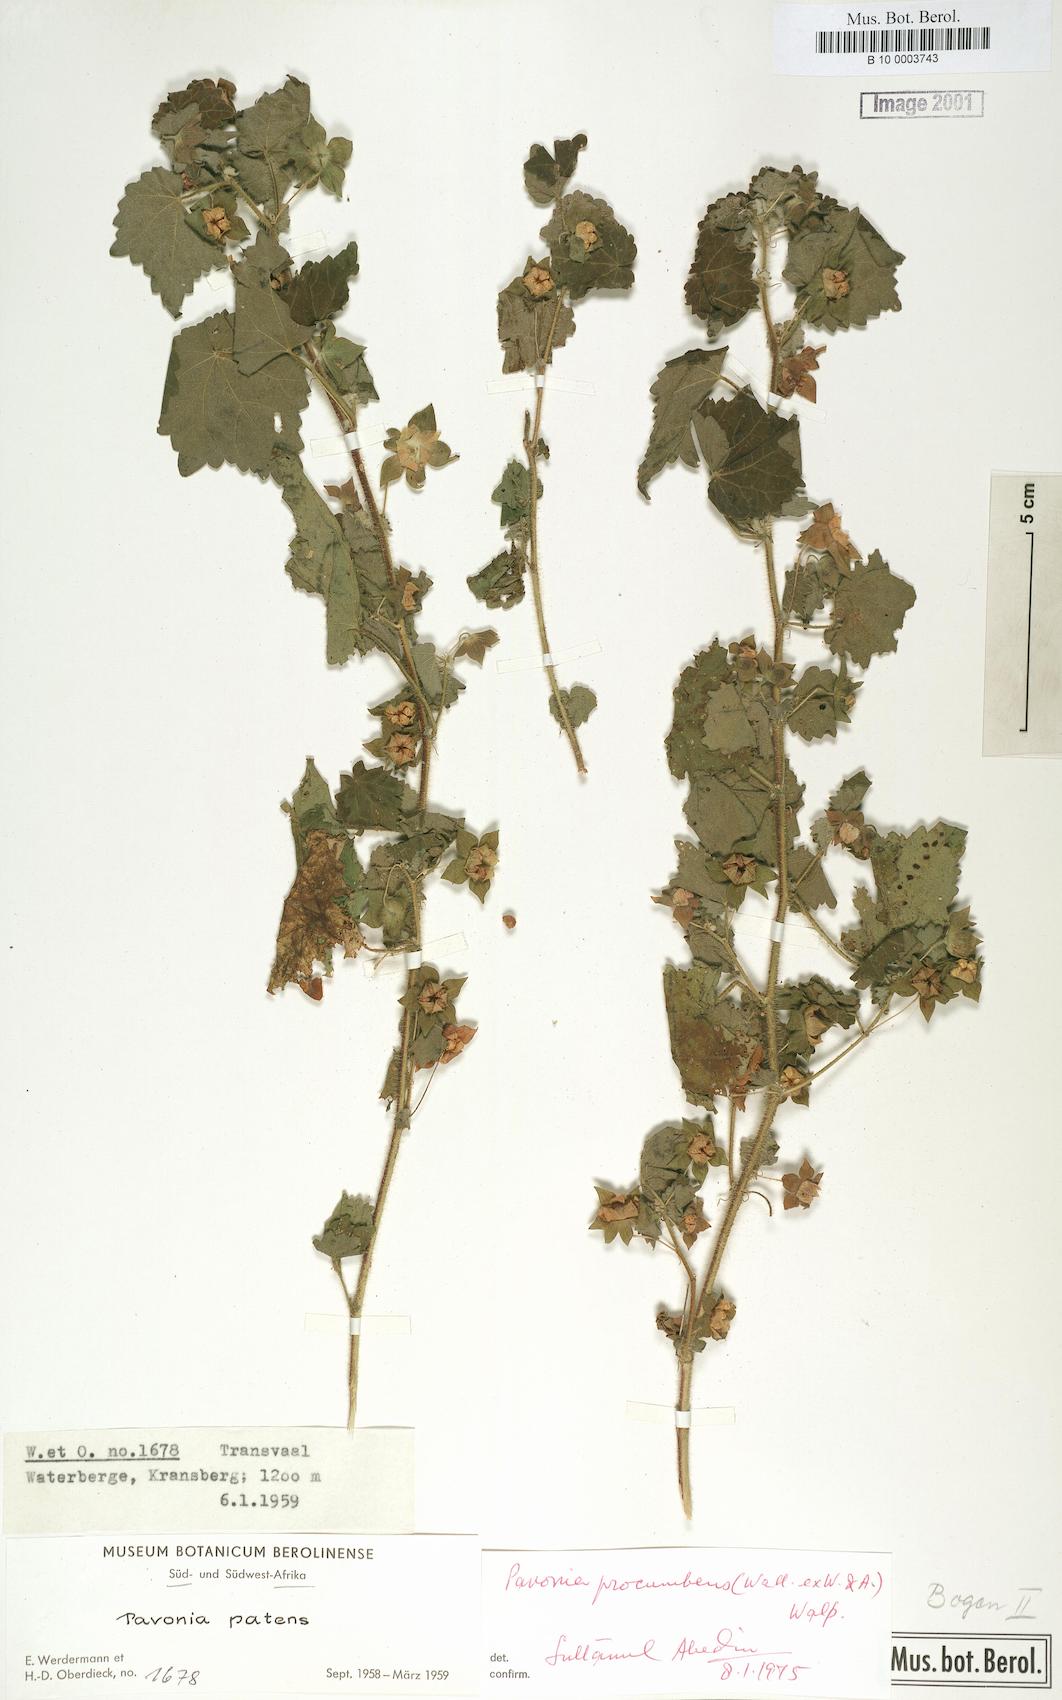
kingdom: Plantae
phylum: Tracheophyta
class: Magnoliopsida
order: Malvales
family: Malvaceae
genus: Pavonia
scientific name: Pavonia procumbens
